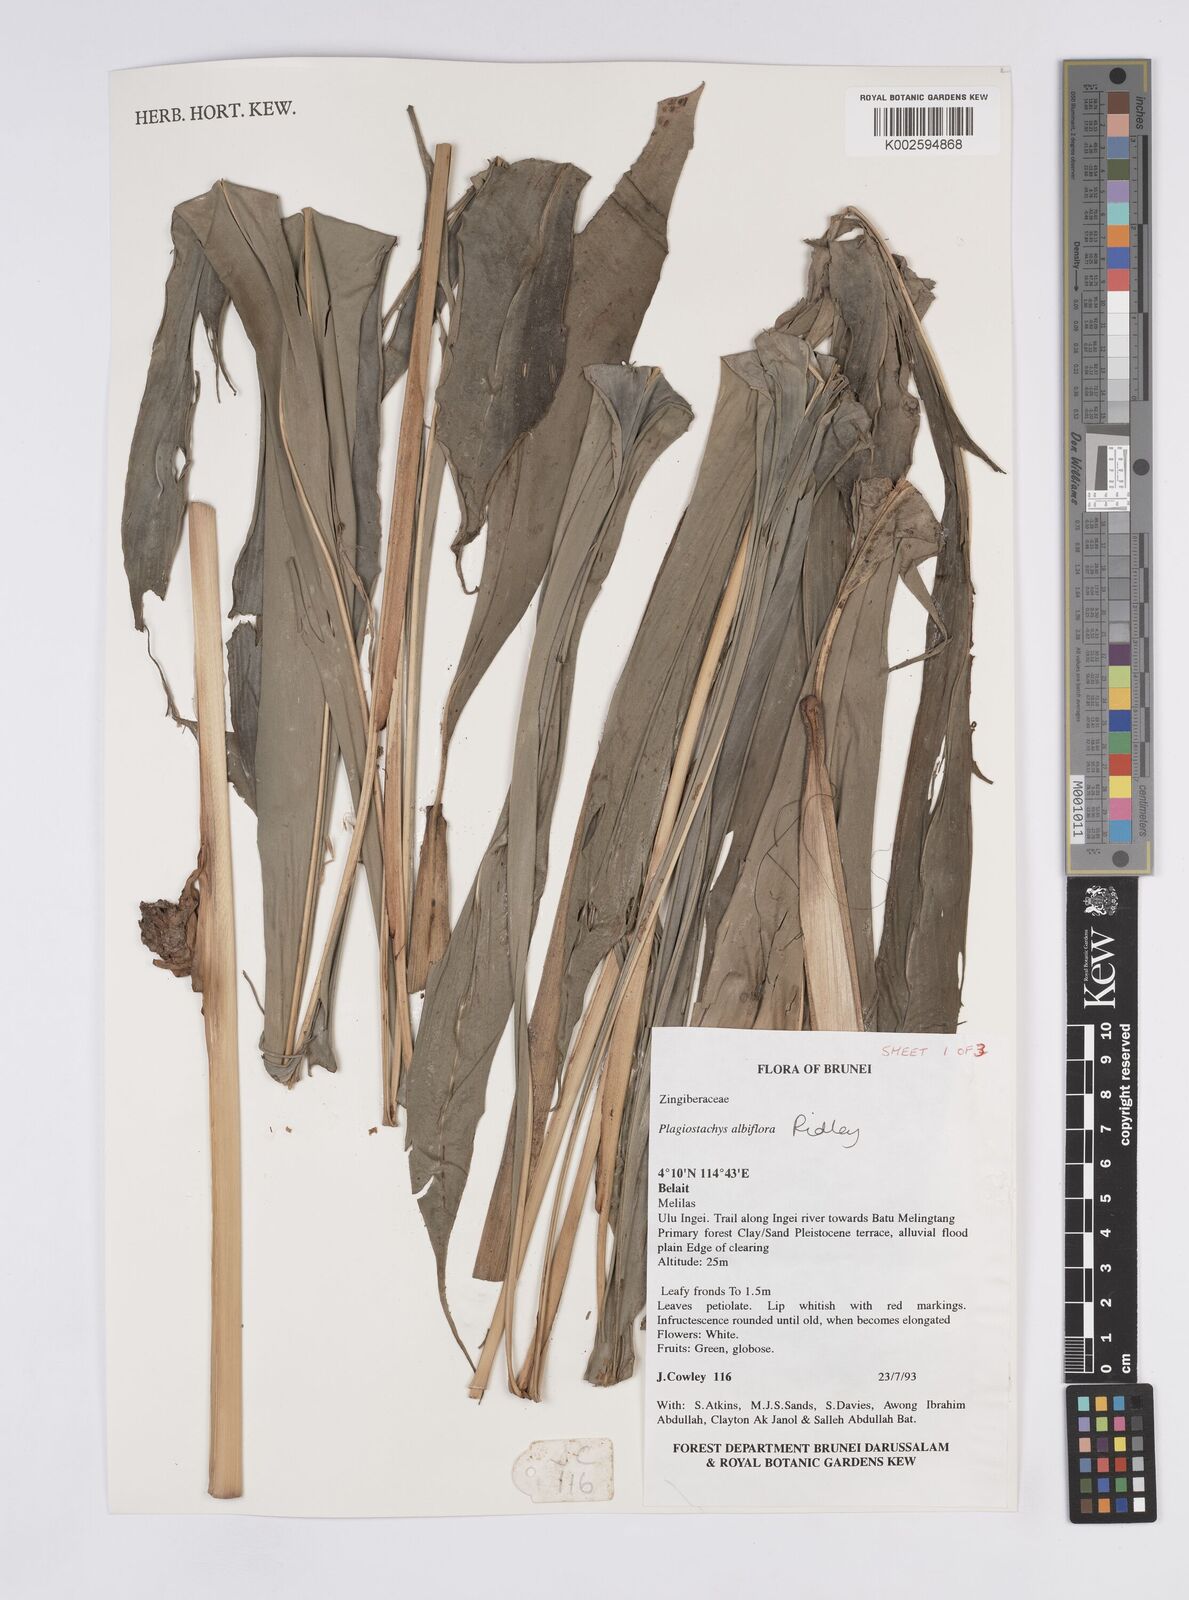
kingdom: Plantae
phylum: Tracheophyta
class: Liliopsida
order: Zingiberales
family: Zingiberaceae
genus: Plagiostachys
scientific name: Plagiostachys albiflora
